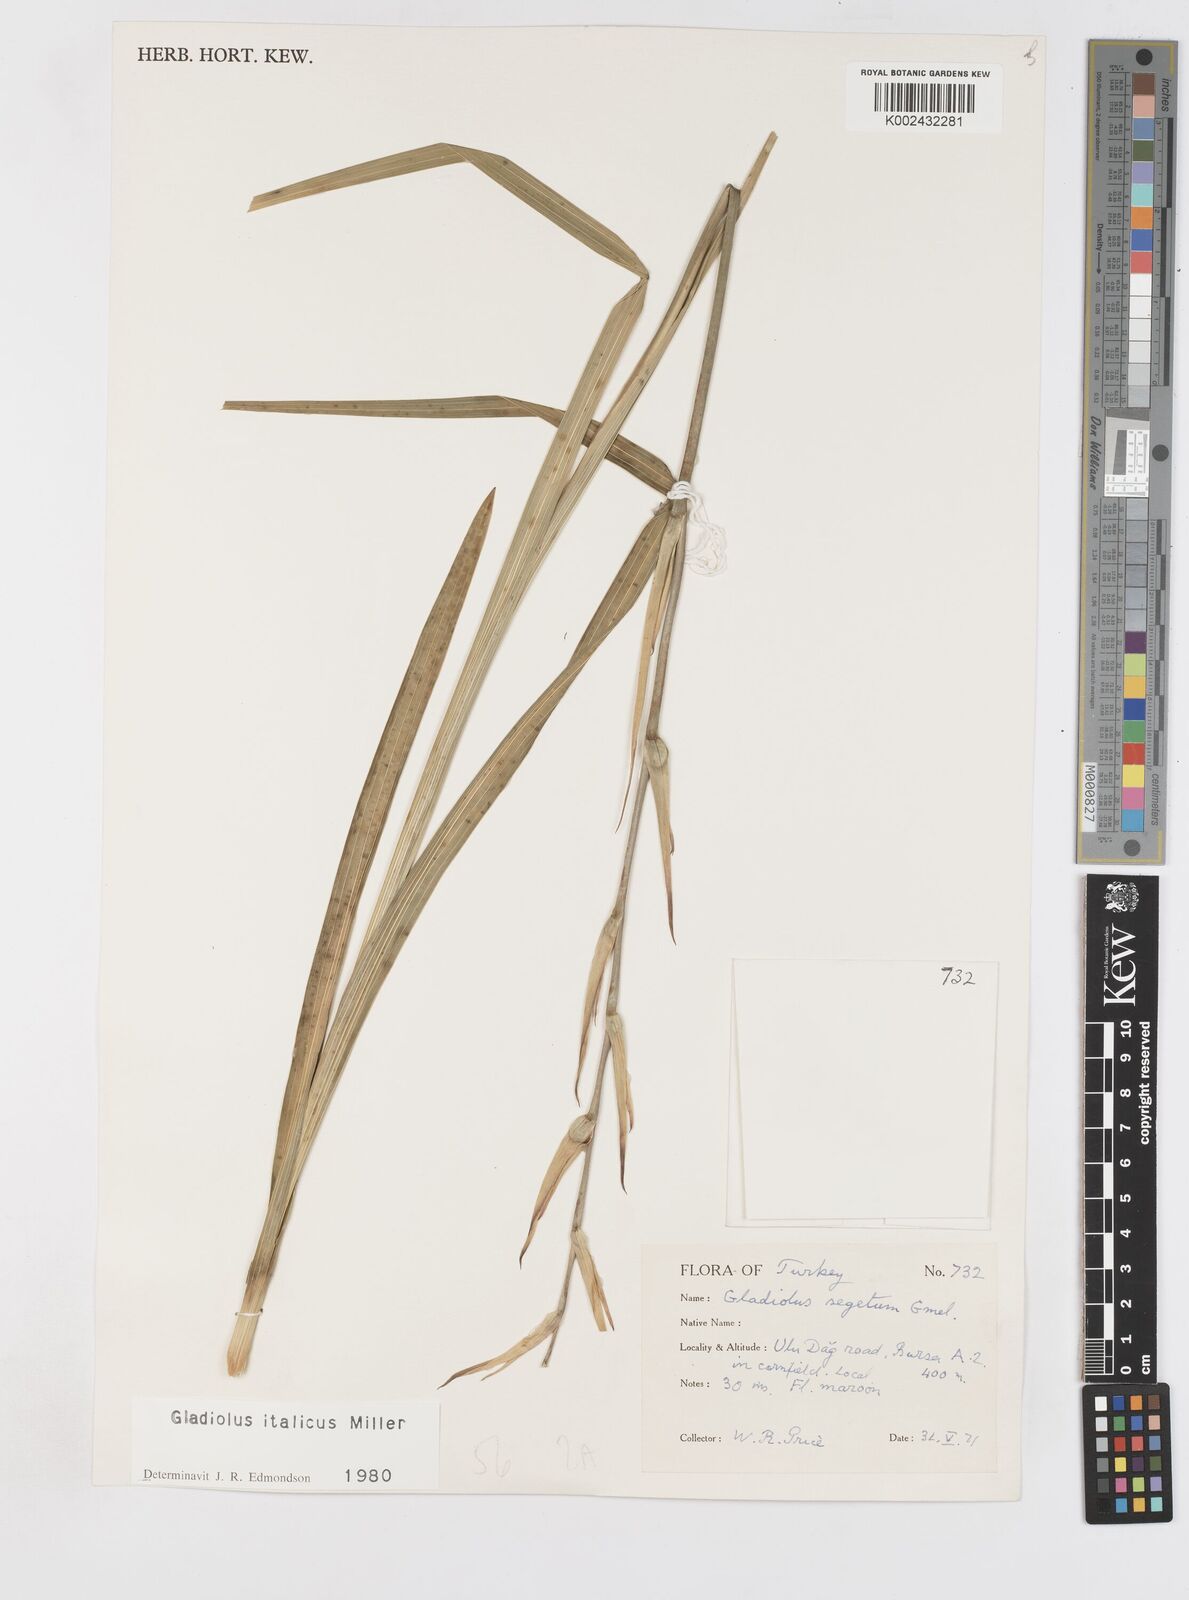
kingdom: Plantae
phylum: Tracheophyta
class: Liliopsida
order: Asparagales
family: Iridaceae
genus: Gladiolus
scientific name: Gladiolus italicus
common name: Field gladiolus
